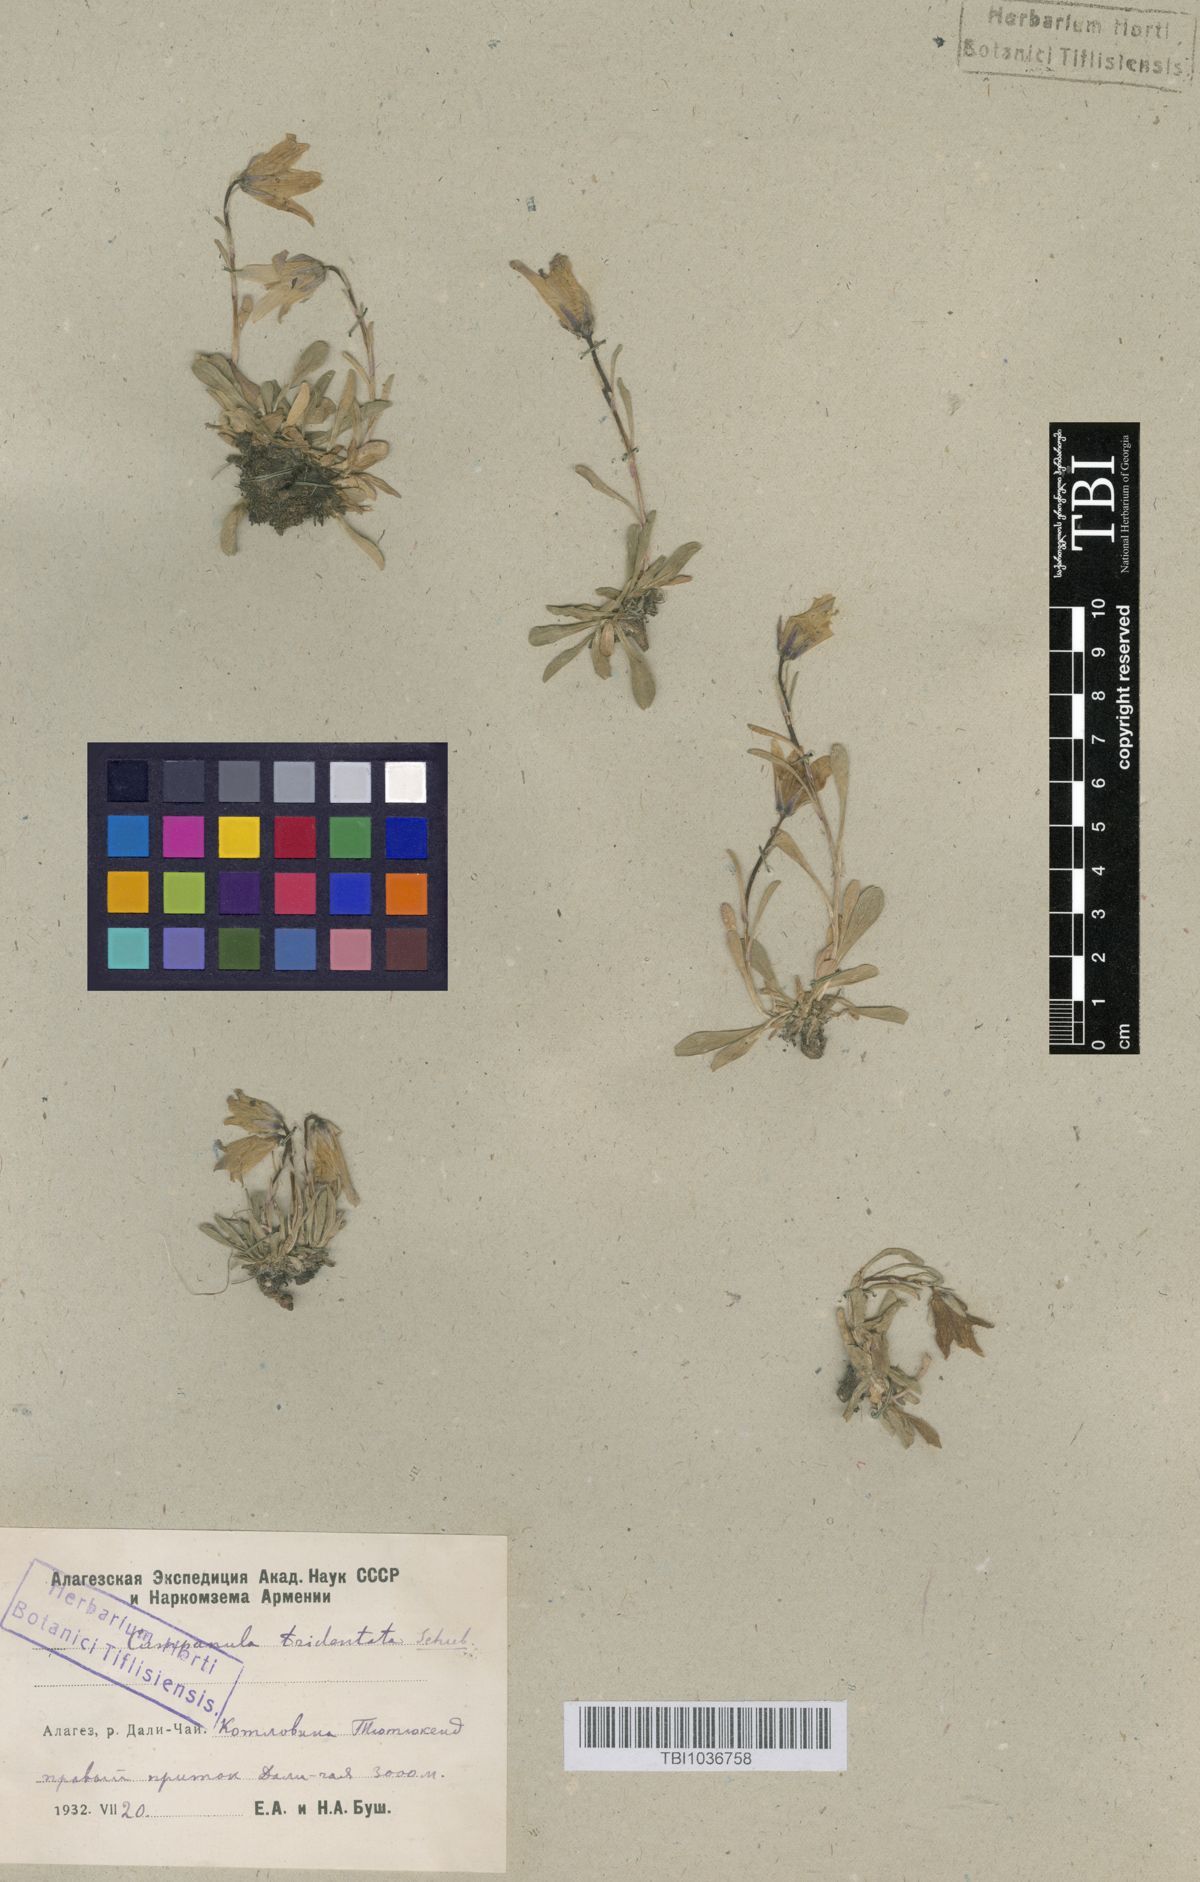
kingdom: Plantae
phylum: Tracheophyta
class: Magnoliopsida
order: Asterales
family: Campanulaceae
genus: Campanula
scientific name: Campanula tridentata
